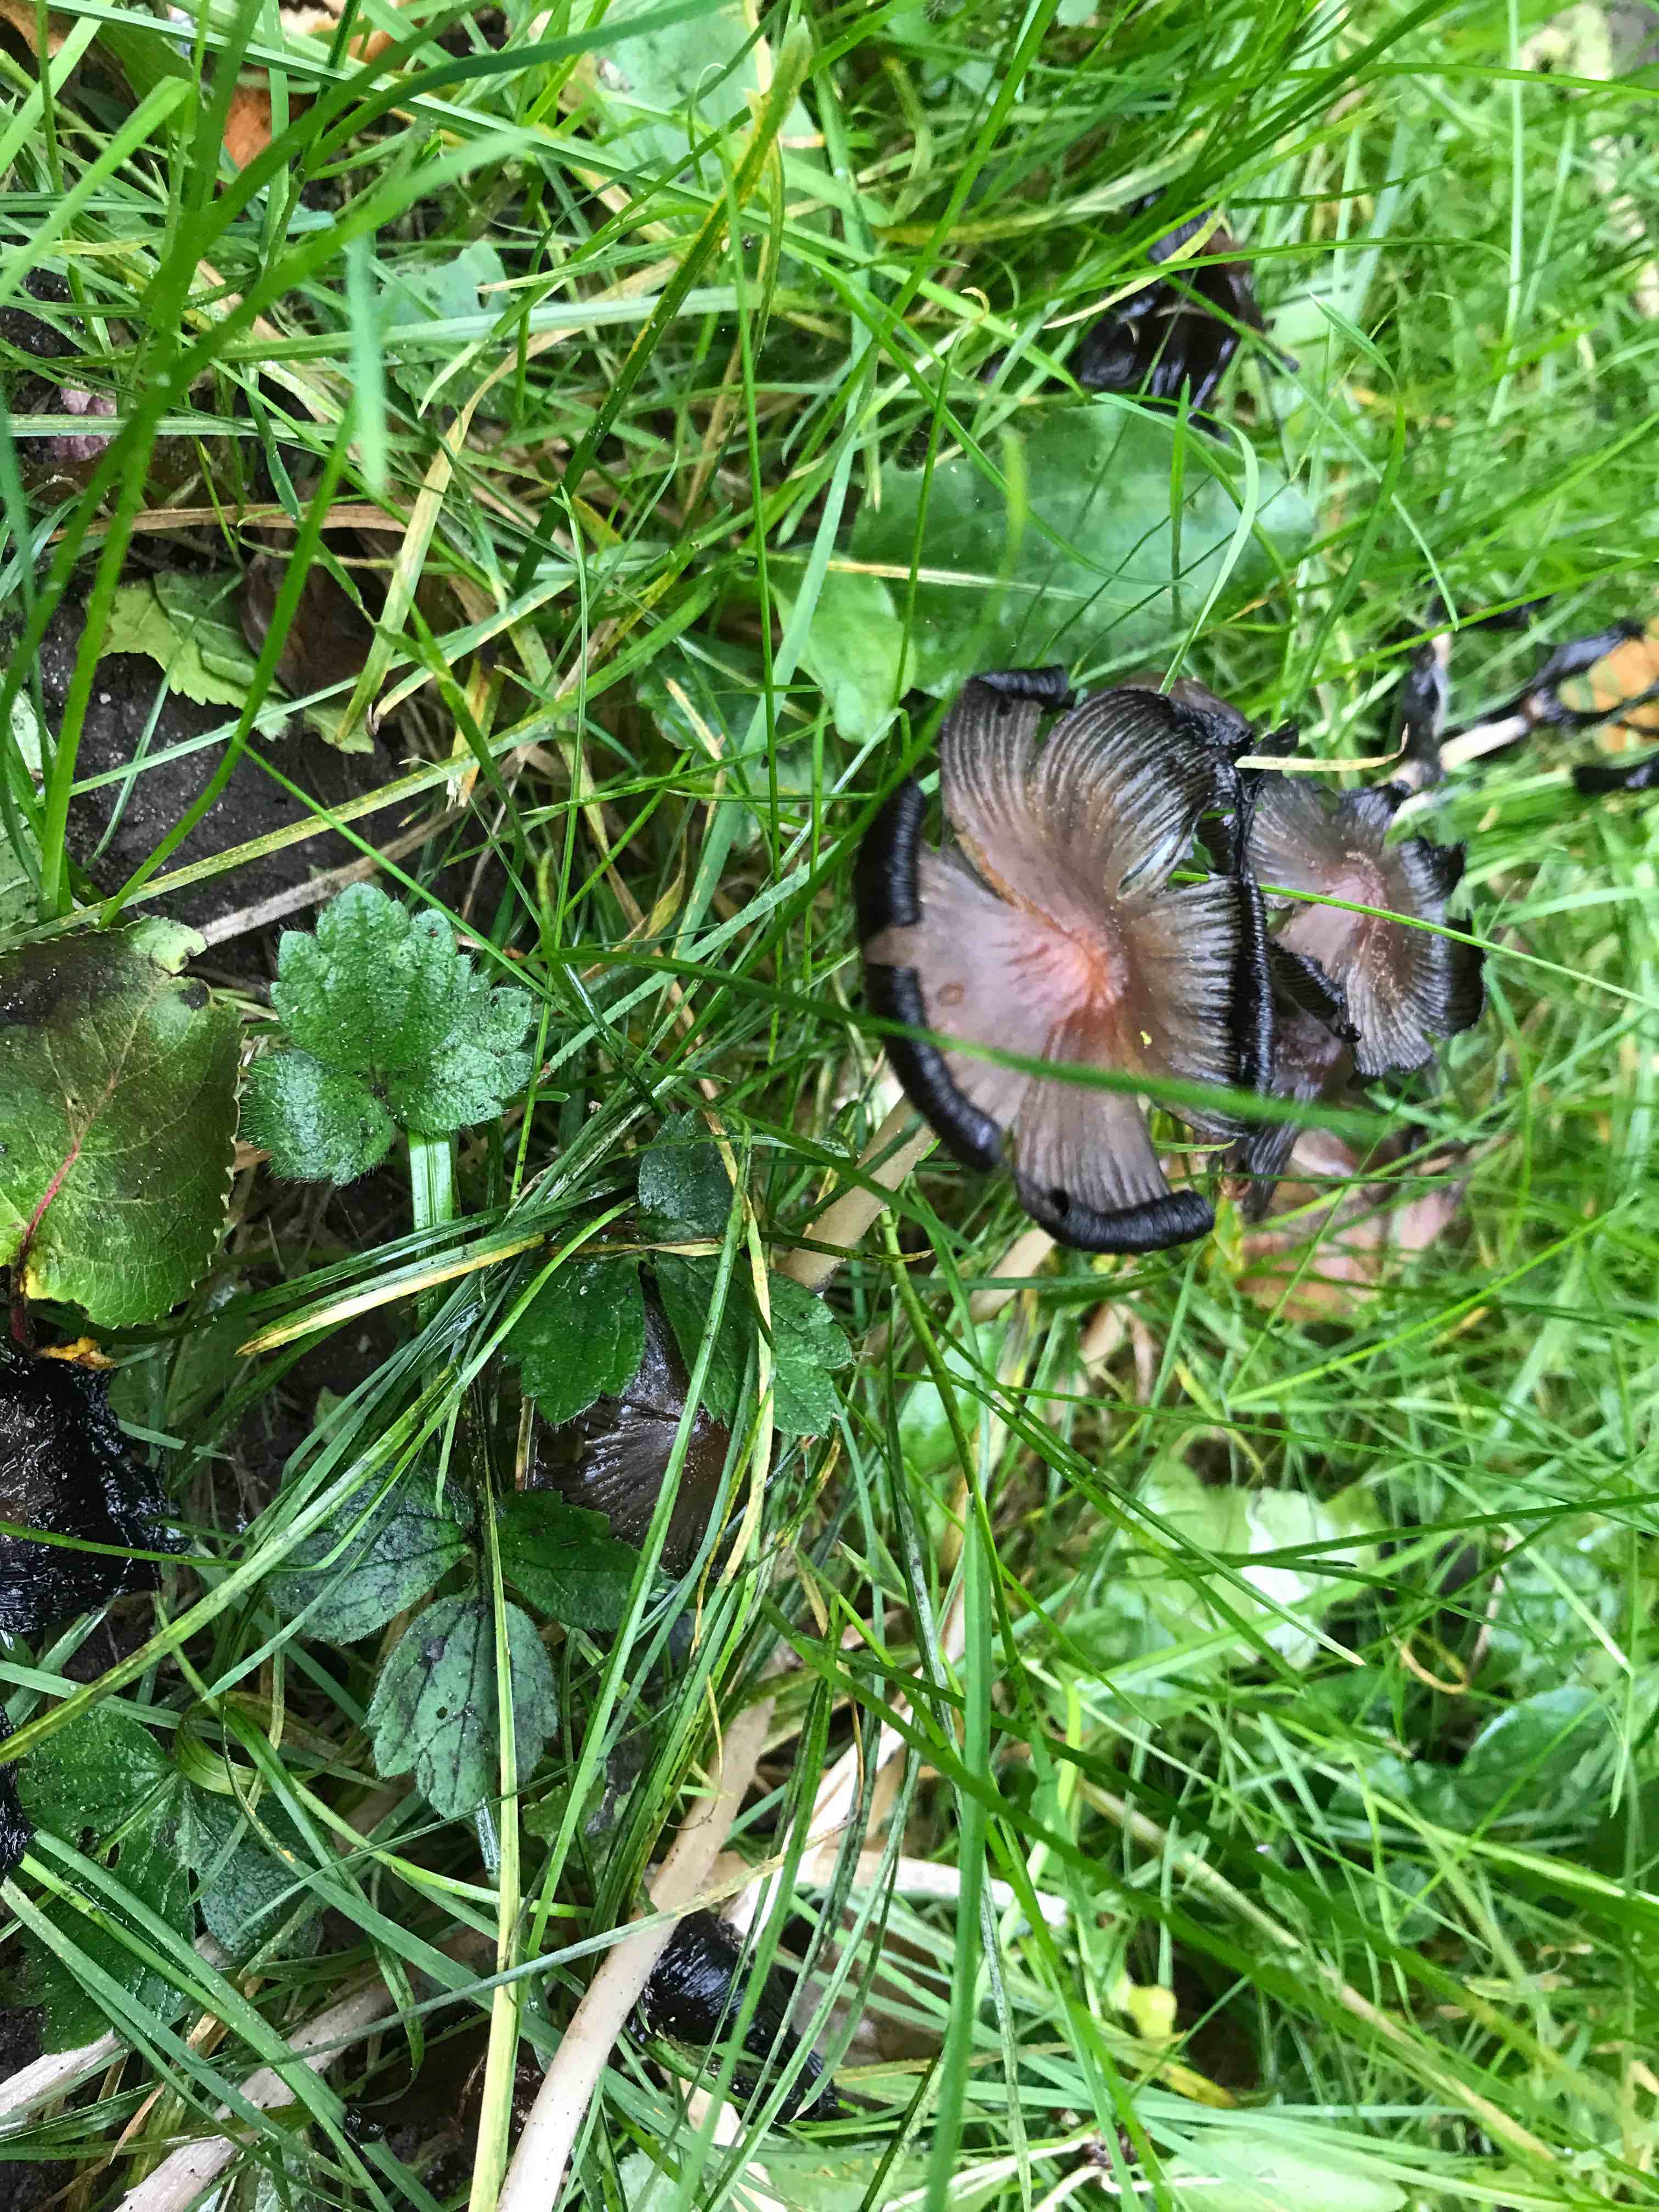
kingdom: Fungi
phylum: Basidiomycota
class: Agaricomycetes
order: Agaricales
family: Psathyrellaceae
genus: Coprinellus
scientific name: Coprinellus
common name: blækhat
